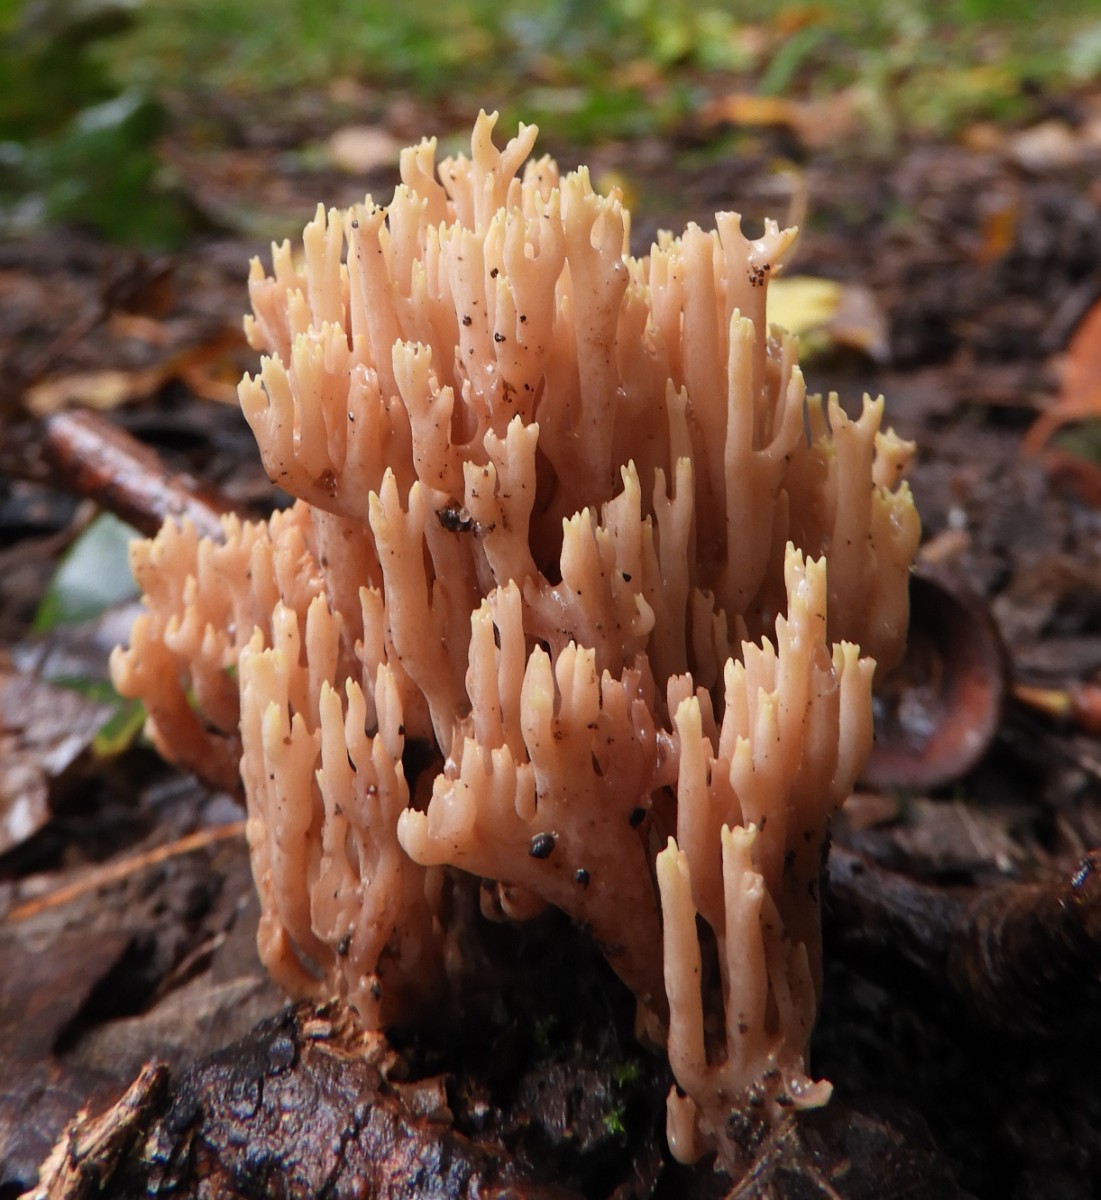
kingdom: Fungi
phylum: Basidiomycota
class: Agaricomycetes
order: Gomphales
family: Gomphaceae
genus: Ramaria
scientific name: Ramaria stricta
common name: rank koralsvamp
